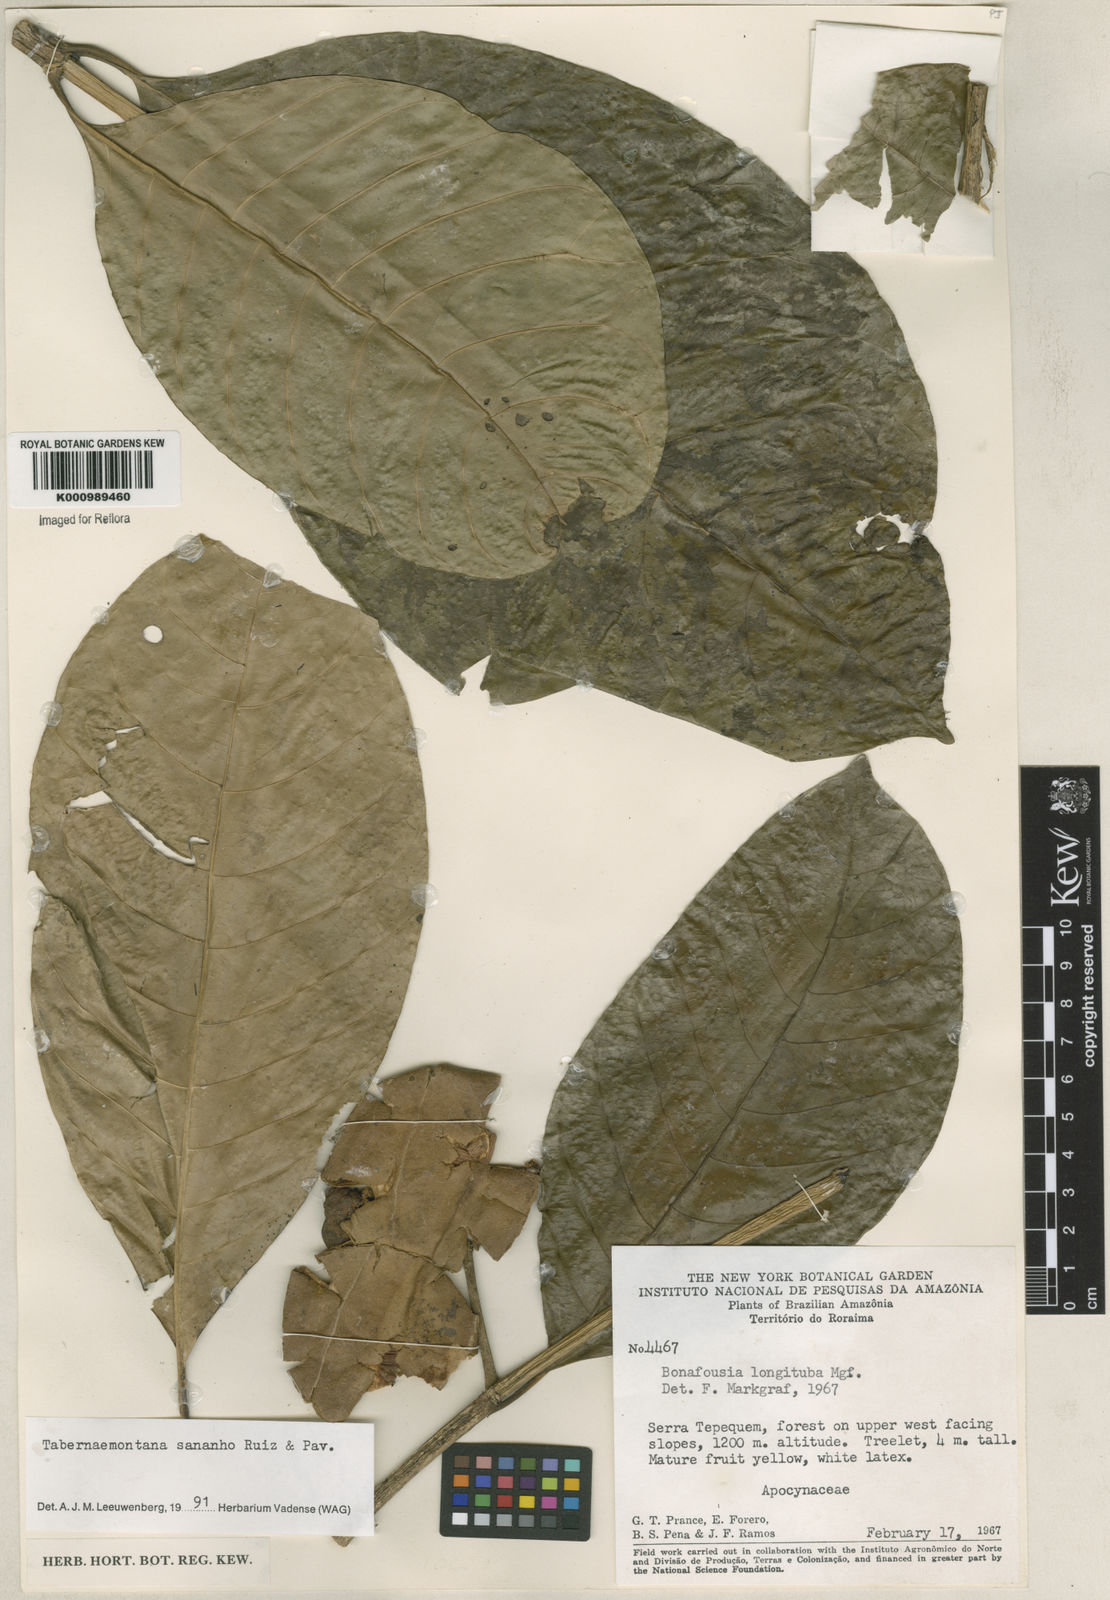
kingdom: Plantae
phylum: Tracheophyta
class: Magnoliopsida
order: Gentianales
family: Apocynaceae
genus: Tabernaemontana
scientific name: Tabernaemontana sananho
